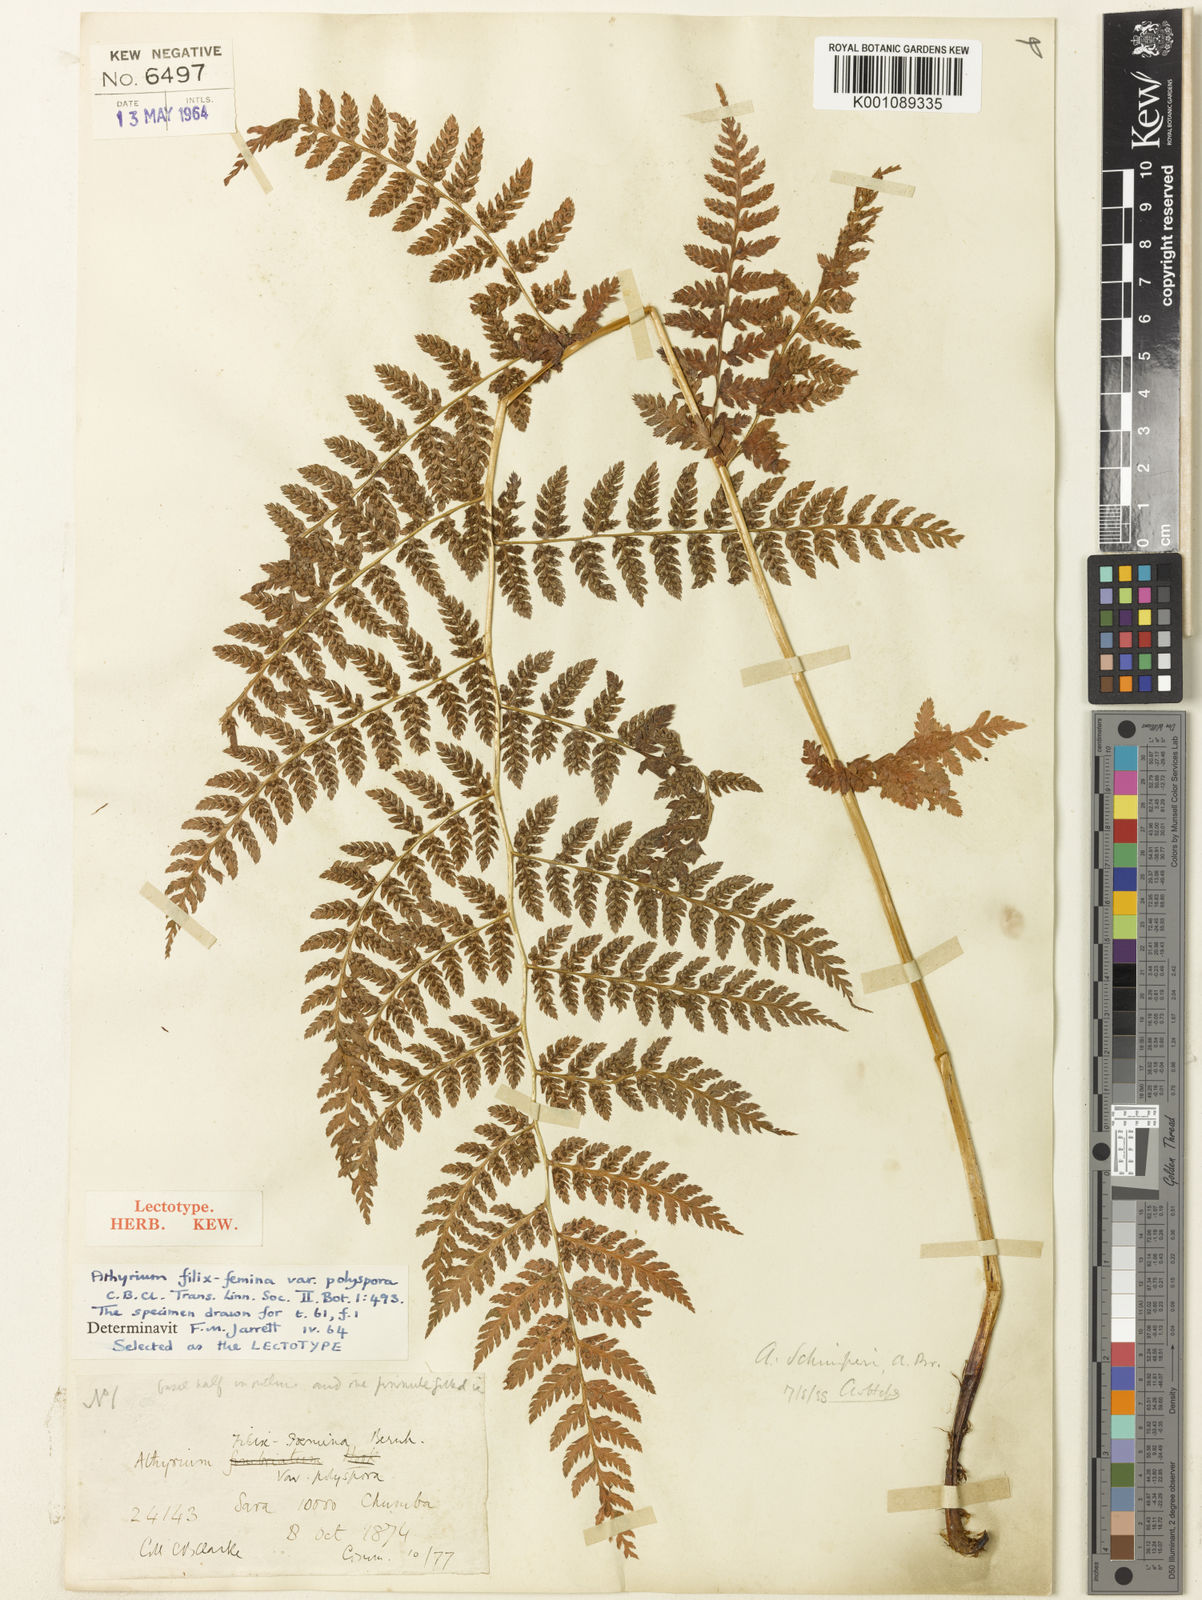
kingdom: Plantae
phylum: Tracheophyta
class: Polypodiopsida
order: Polypodiales
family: Athyriaceae
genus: Athyrium
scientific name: Athyrium
